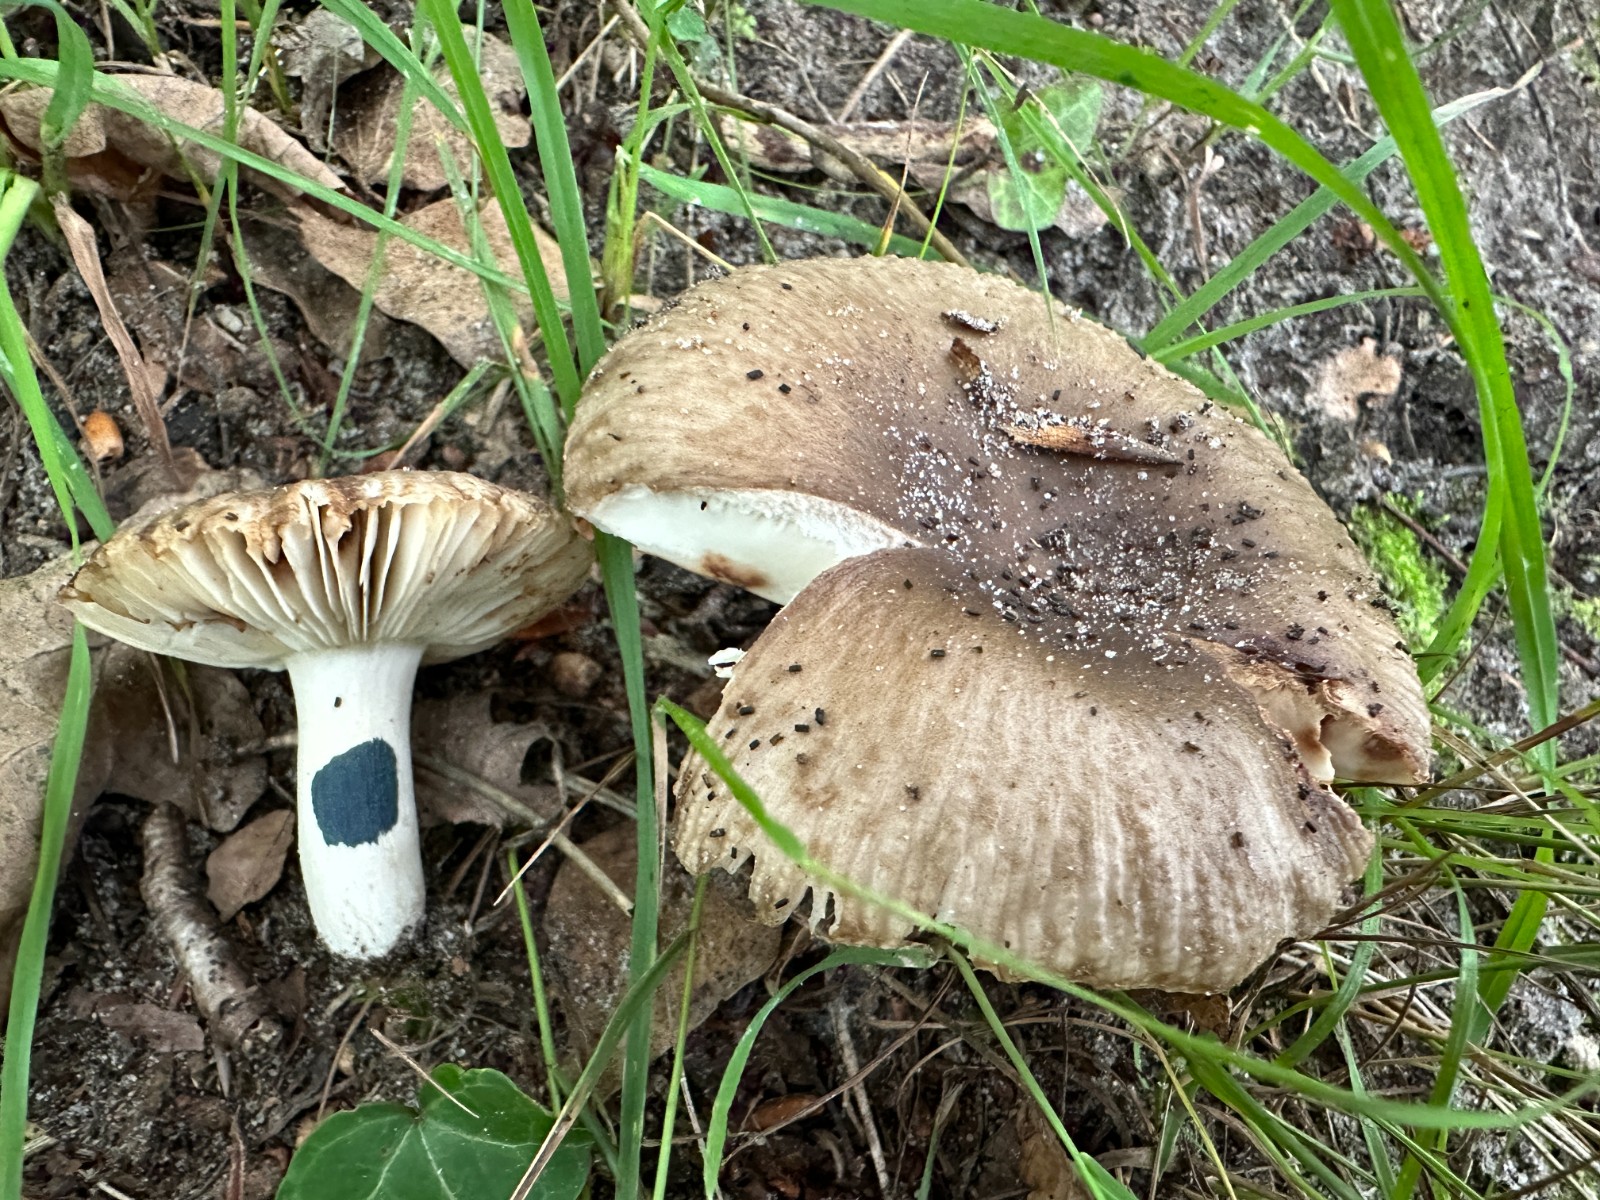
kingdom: Fungi
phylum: Basidiomycota
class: Agaricomycetes
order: Russulales
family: Russulaceae
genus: Russula
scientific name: Russula amoenolens
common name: skarp kam-skørhat
